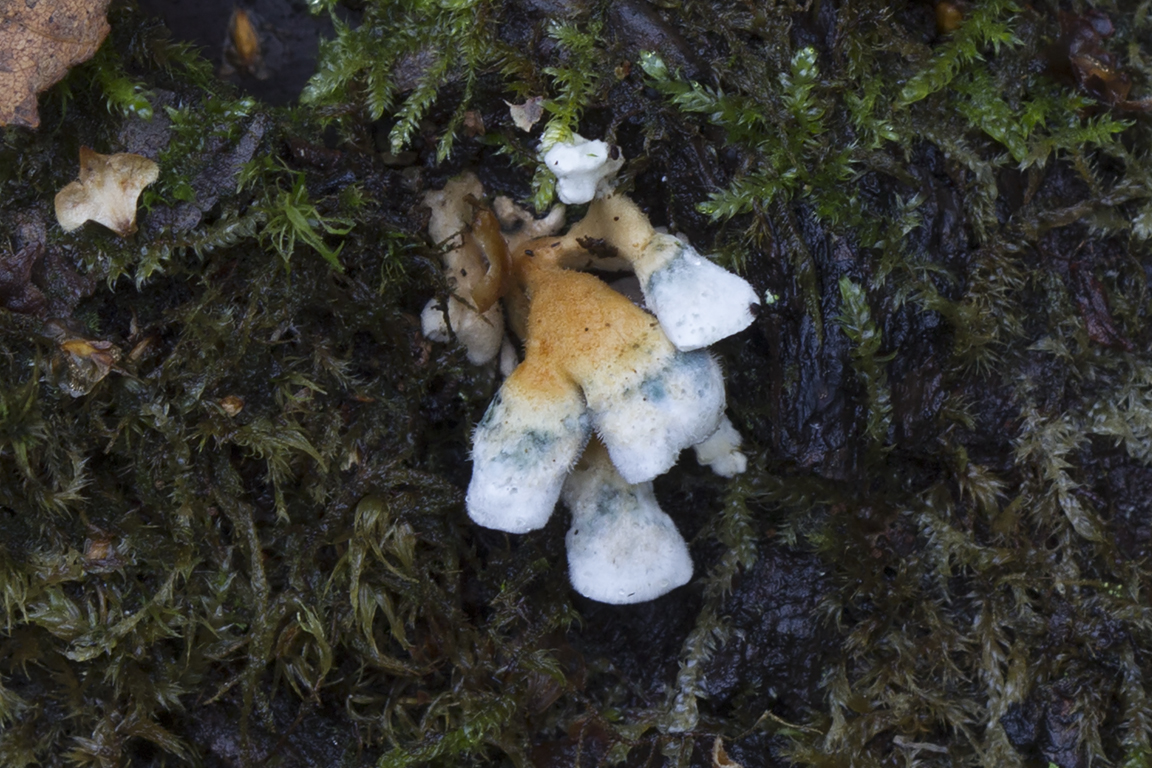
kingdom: Fungi
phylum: Basidiomycota
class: Agaricomycetes
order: Amylocorticiales
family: Amylocorticiaceae
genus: Plicaturopsis
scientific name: Plicaturopsis crispa
